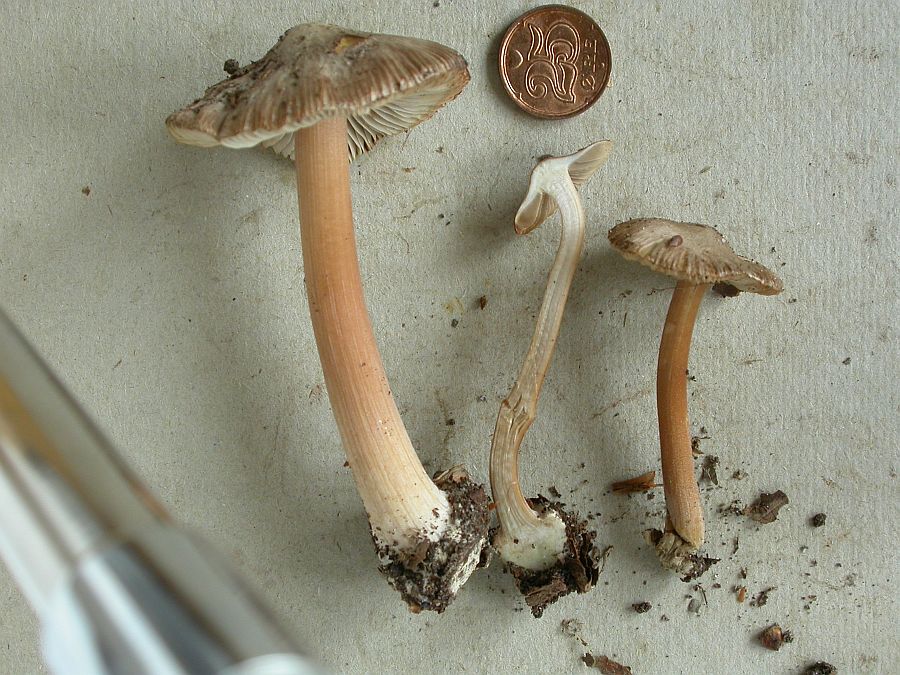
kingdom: Fungi
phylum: Basidiomycota
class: Agaricomycetes
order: Agaricales
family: Inocybaceae
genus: Inocybe
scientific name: Inocybe asterospora
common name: stjernesporet trævlhat
